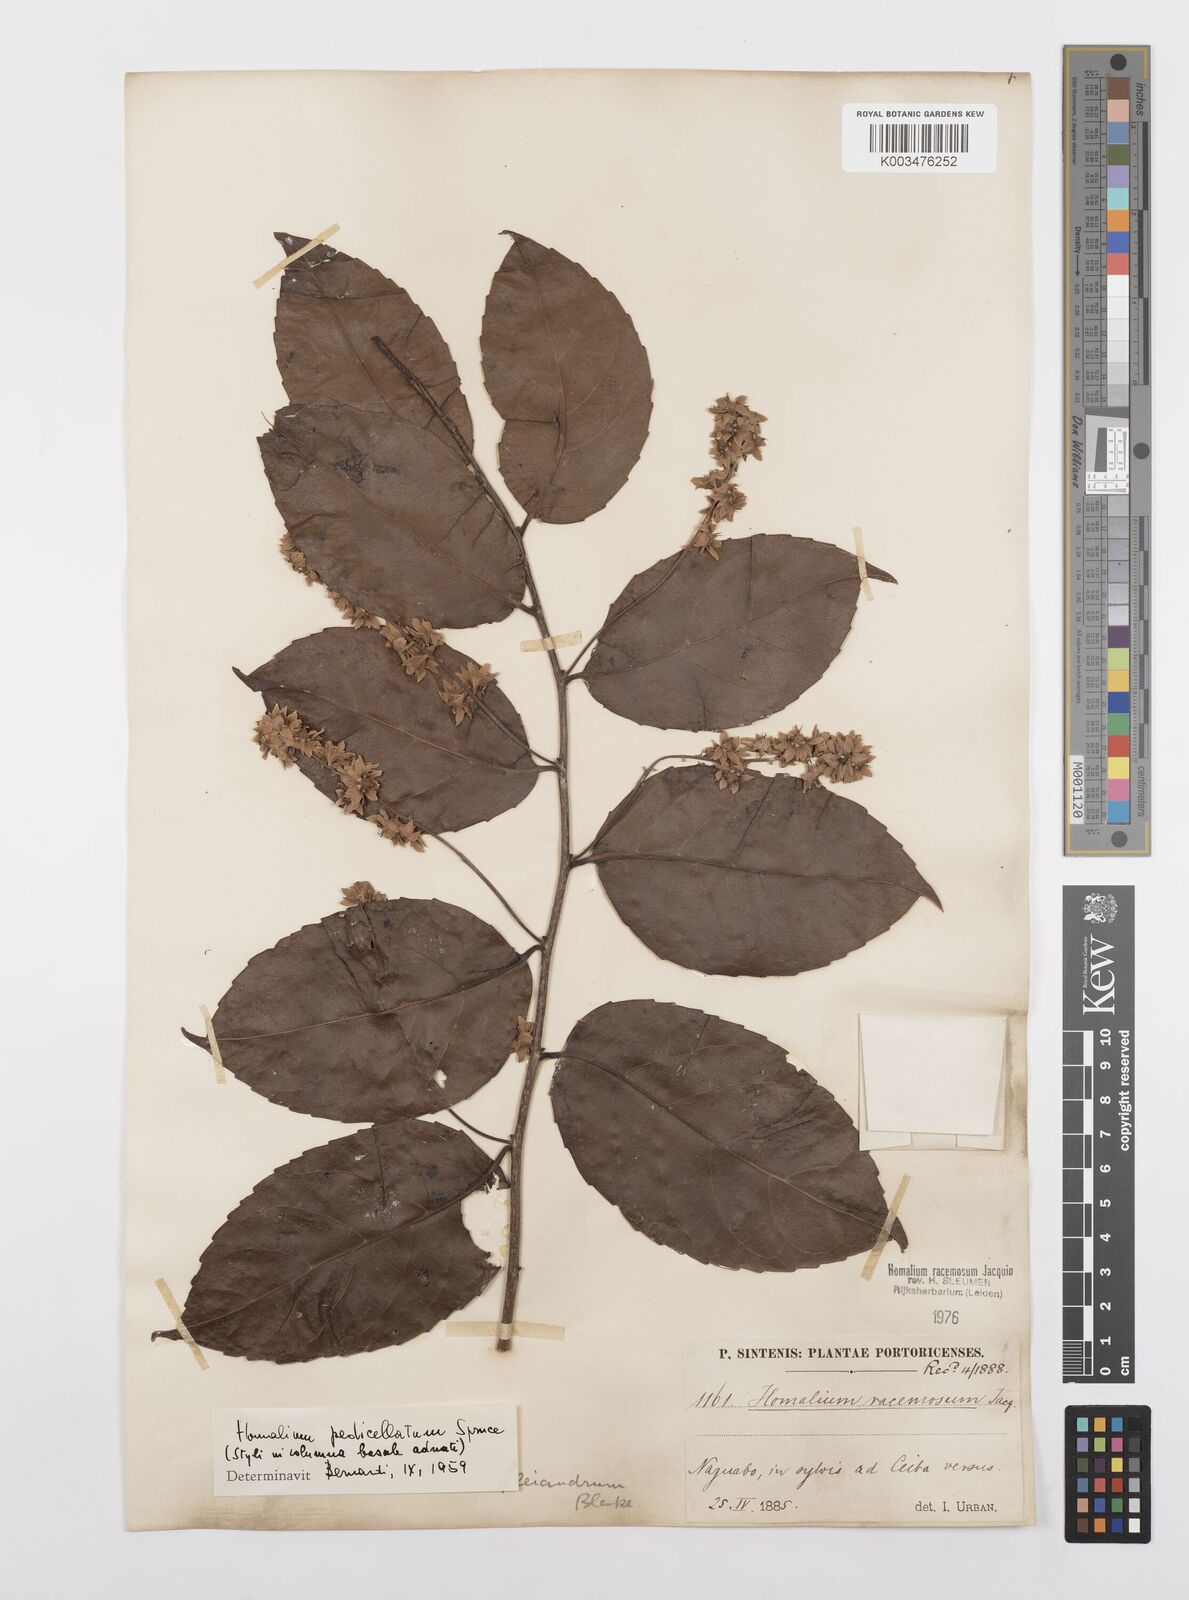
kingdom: Plantae
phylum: Tracheophyta
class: Magnoliopsida
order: Malpighiales
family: Salicaceae
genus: Homalium
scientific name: Homalium racemosum
